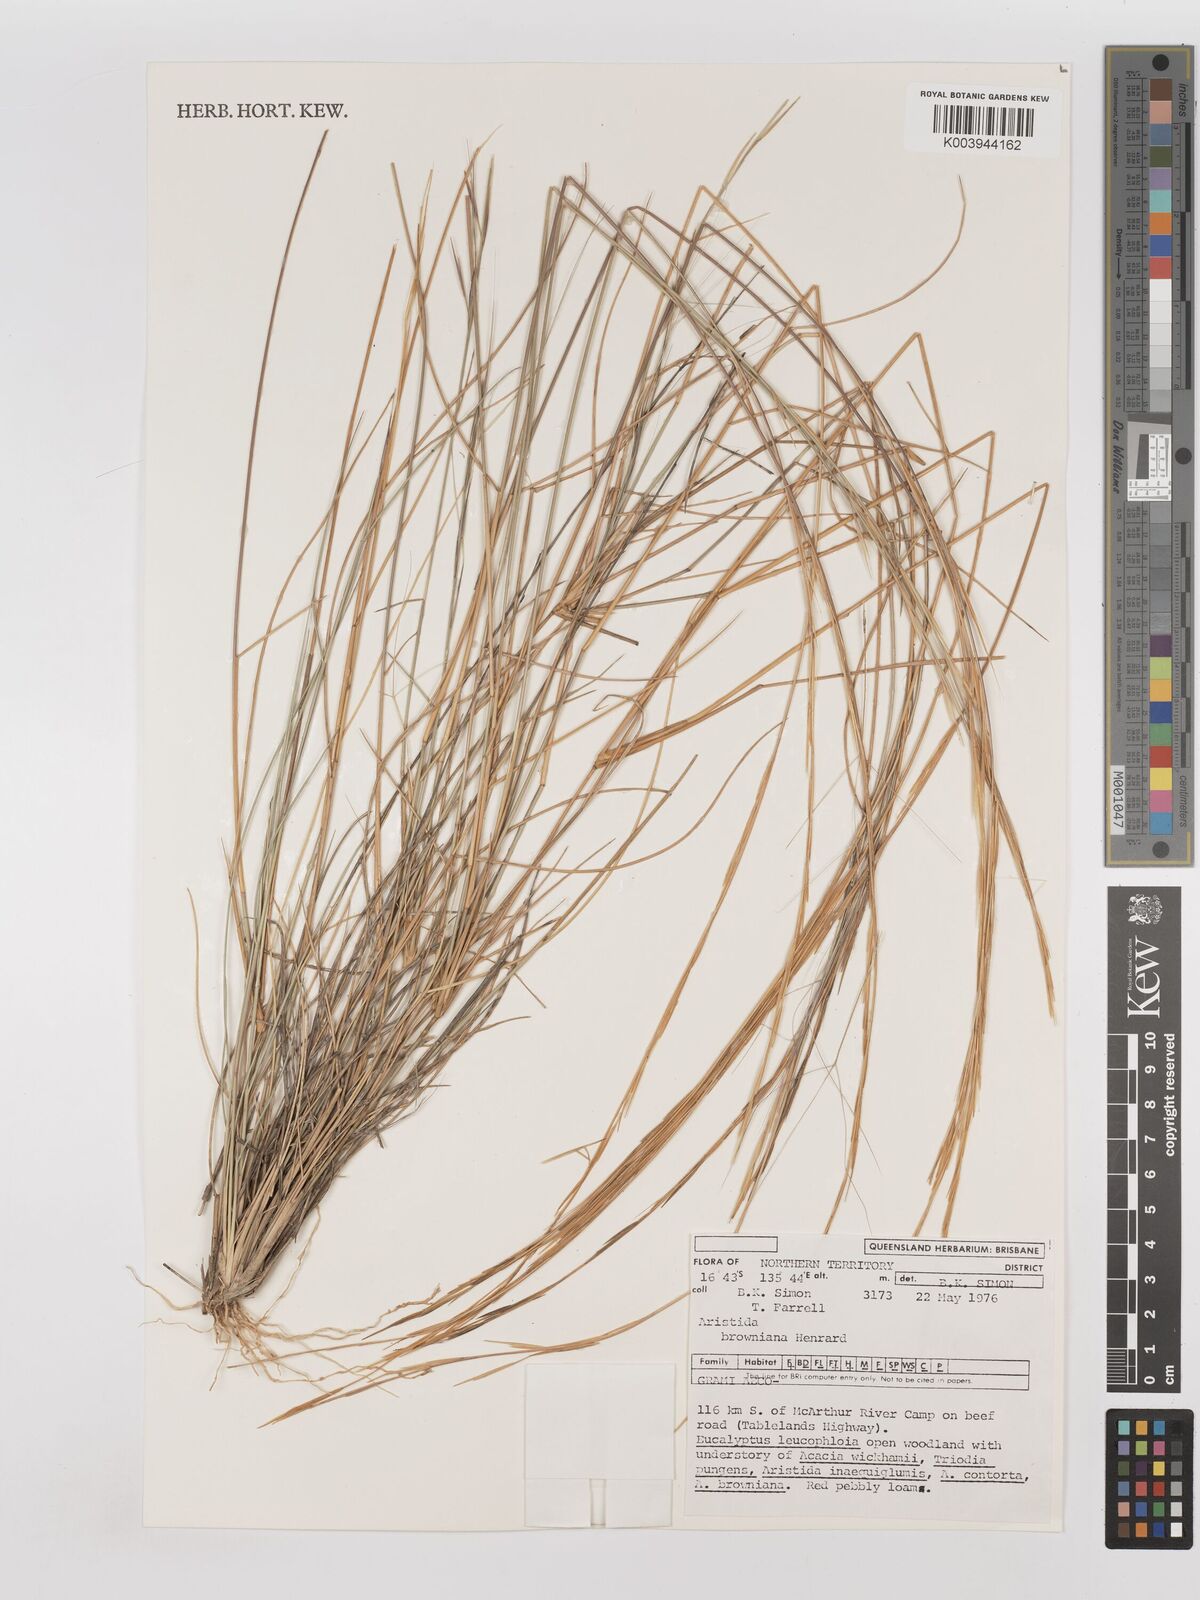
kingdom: Plantae
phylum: Tracheophyta
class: Liliopsida
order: Poales
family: Poaceae
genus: Aristida
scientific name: Aristida holathera
